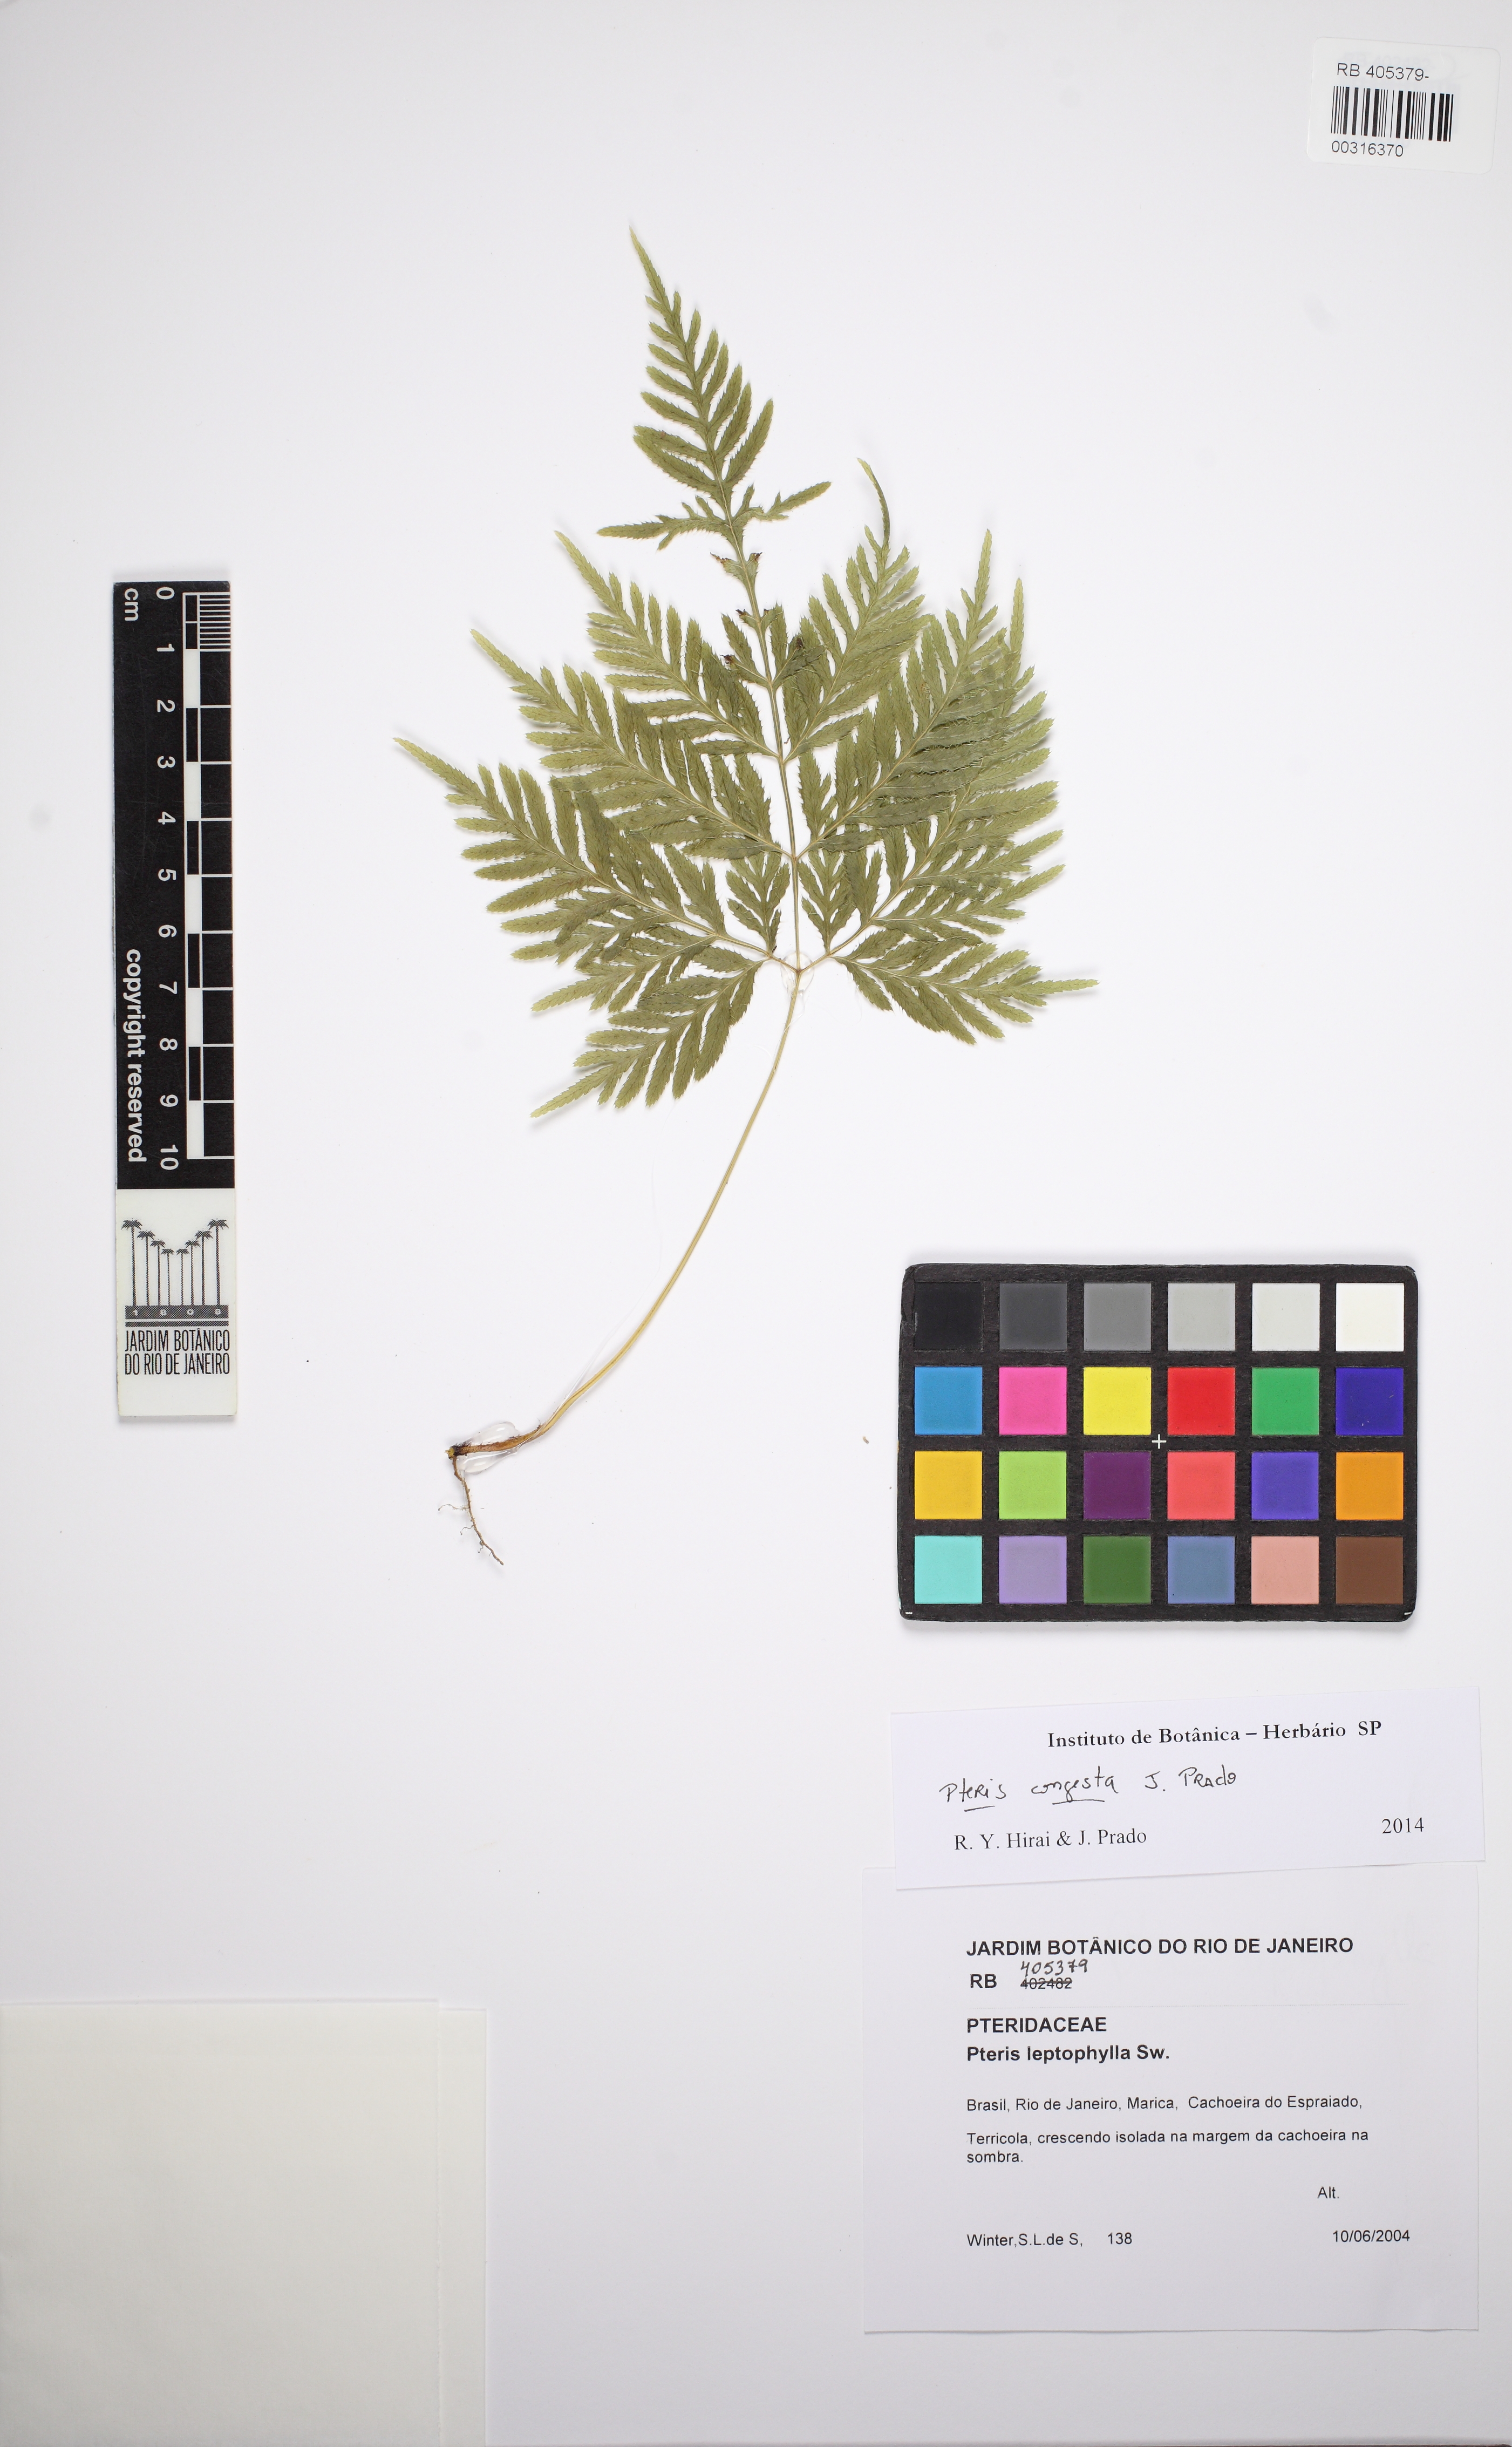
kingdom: Plantae
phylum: Tracheophyta
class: Polypodiopsida
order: Polypodiales
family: Pteridaceae
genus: Pteris
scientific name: Pteris leptophylla
